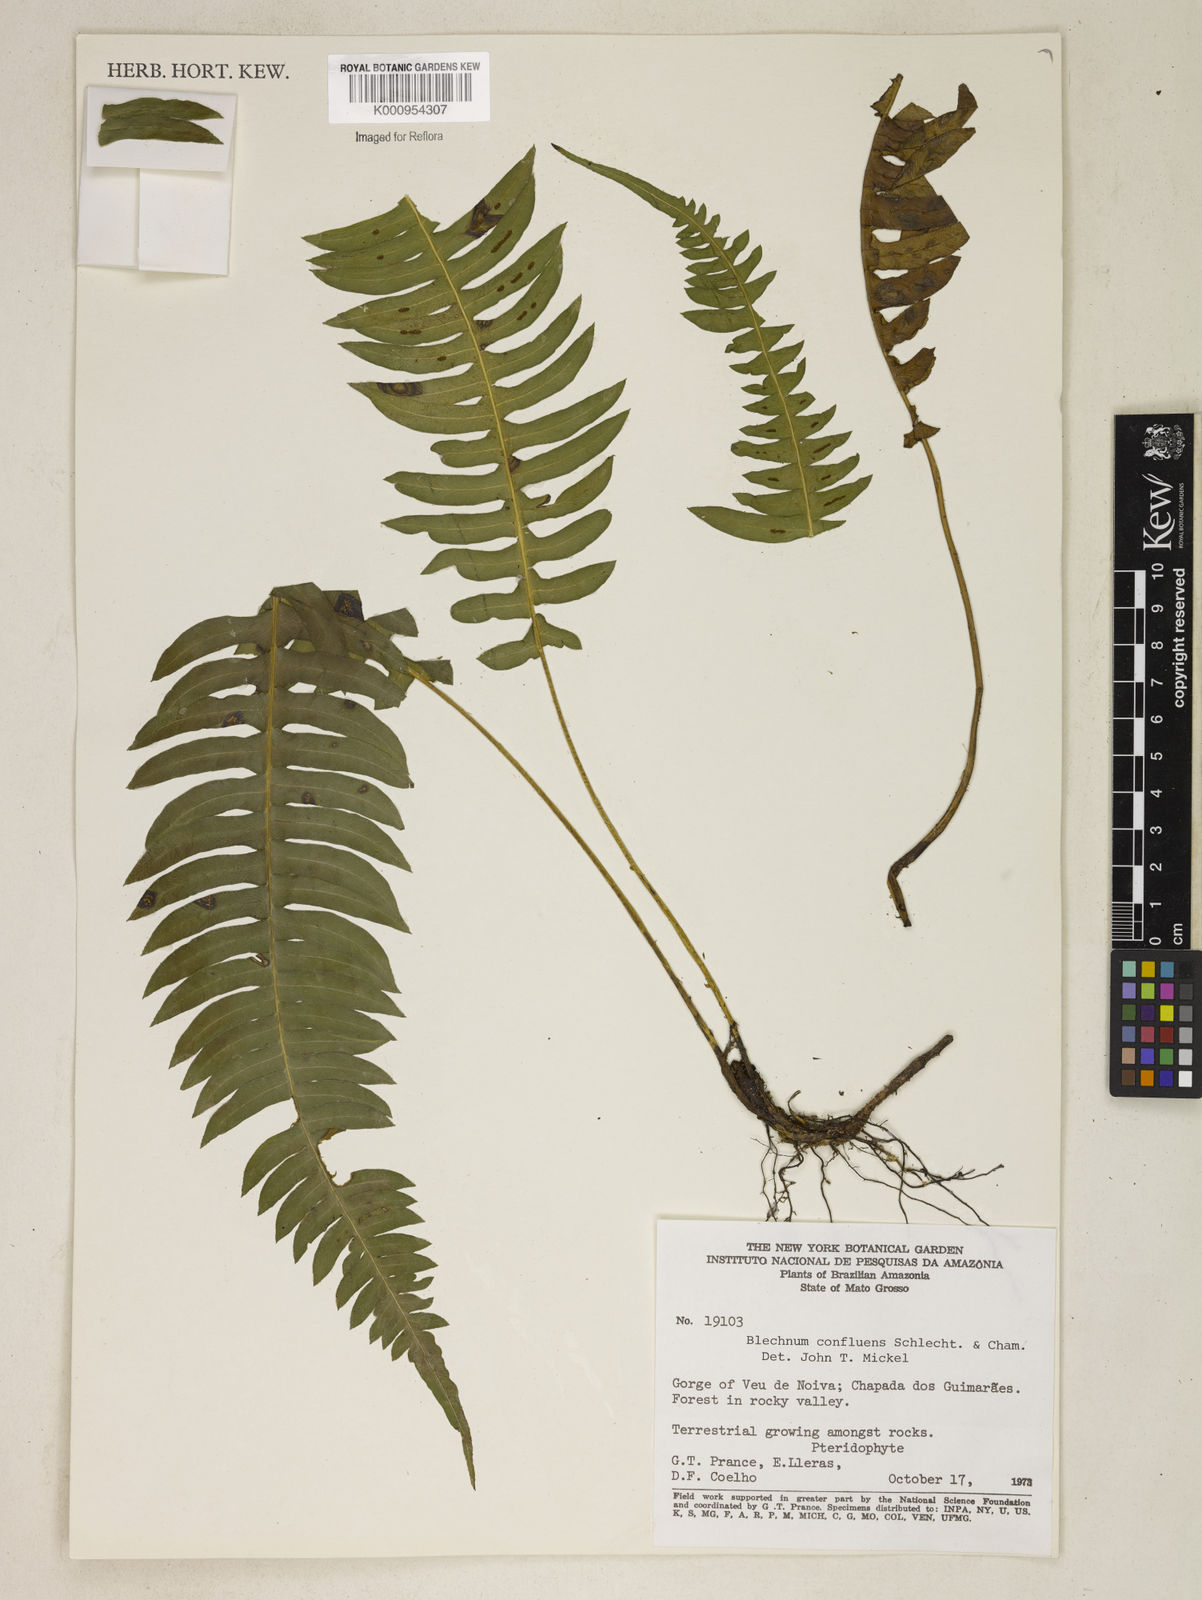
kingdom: Plantae
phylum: Tracheophyta
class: Polypodiopsida
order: Polypodiales
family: Blechnaceae
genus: Blechnum
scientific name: Blechnum confluens
